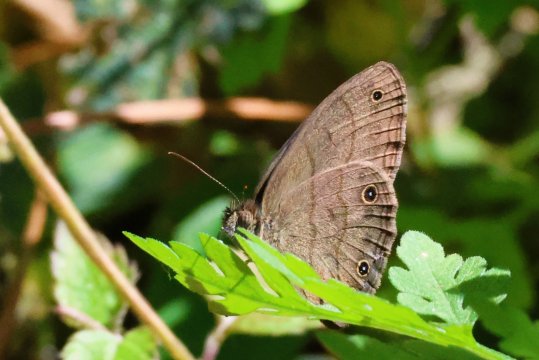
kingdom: Animalia
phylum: Arthropoda
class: Insecta
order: Lepidoptera
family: Nymphalidae
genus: Hermeuptychia
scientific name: Hermeuptychia hermes
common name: Carolina Satyr
